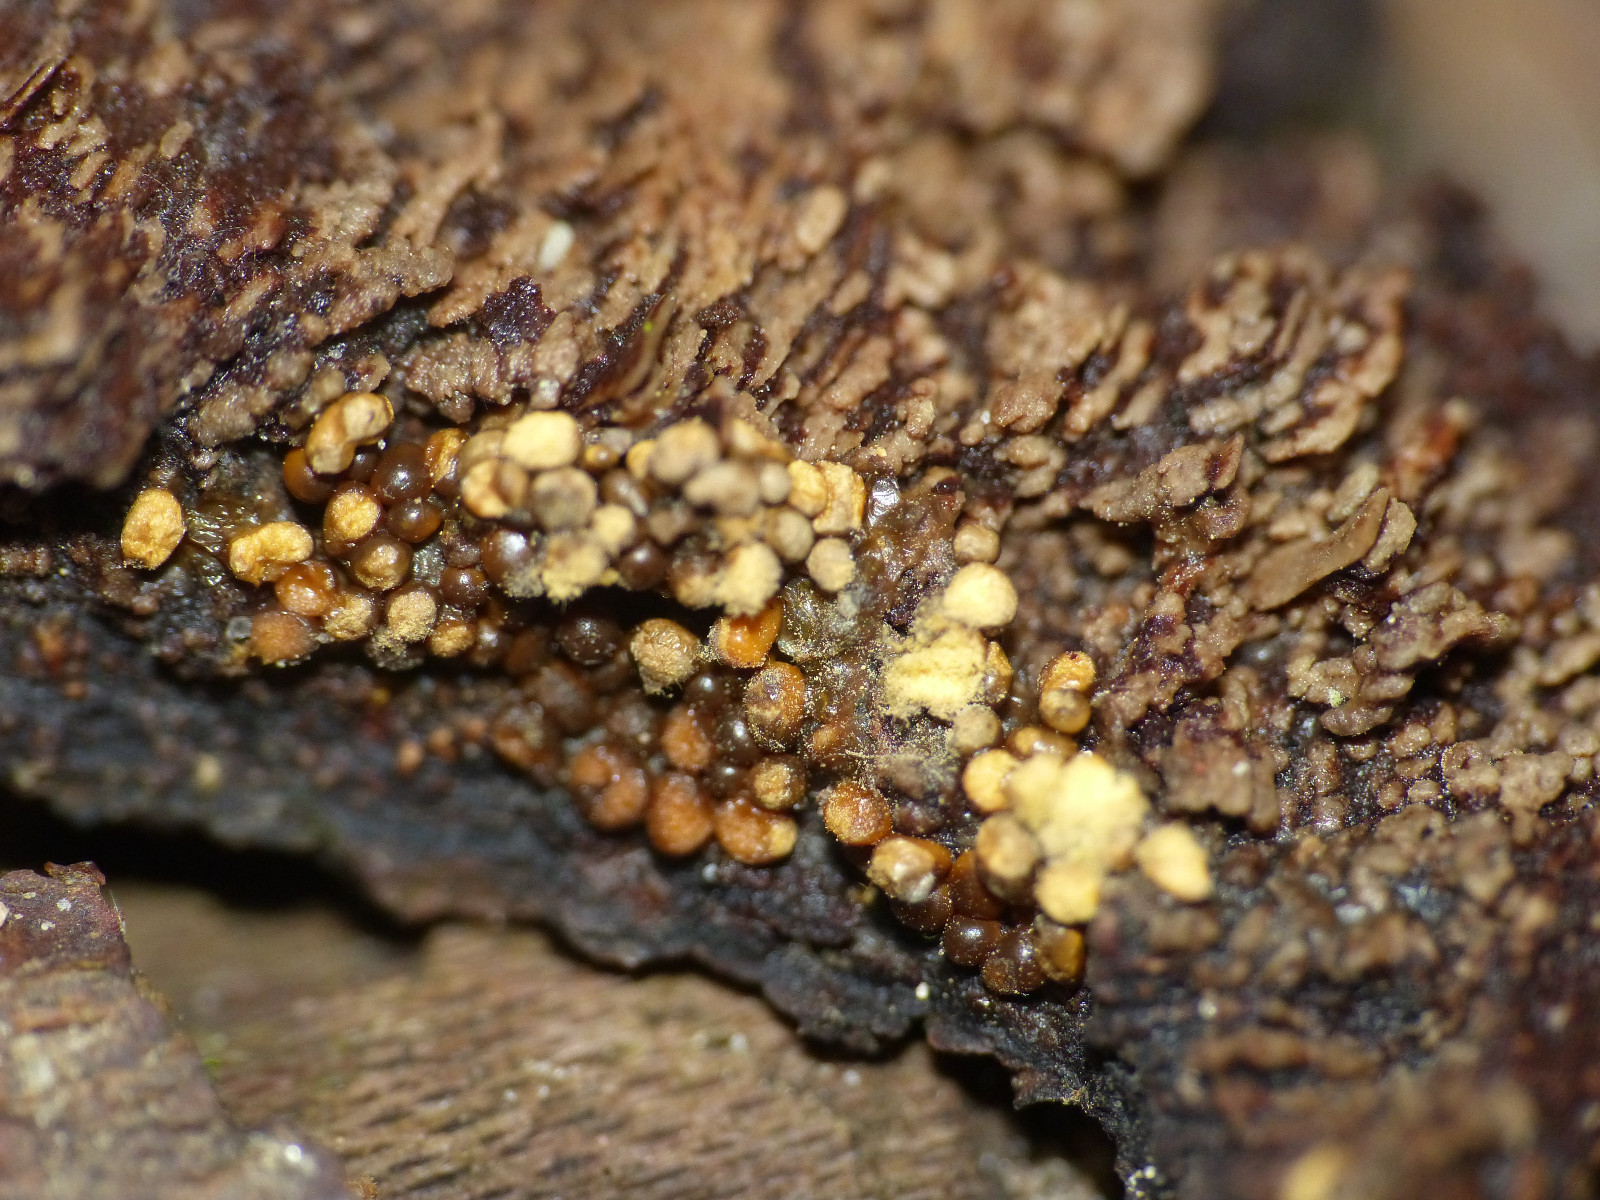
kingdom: Protozoa
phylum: Mycetozoa
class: Myxomycetes
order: Trichiales
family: Trichiaceae
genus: Trichia
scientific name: Trichia varia
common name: foranderlig hårbold
